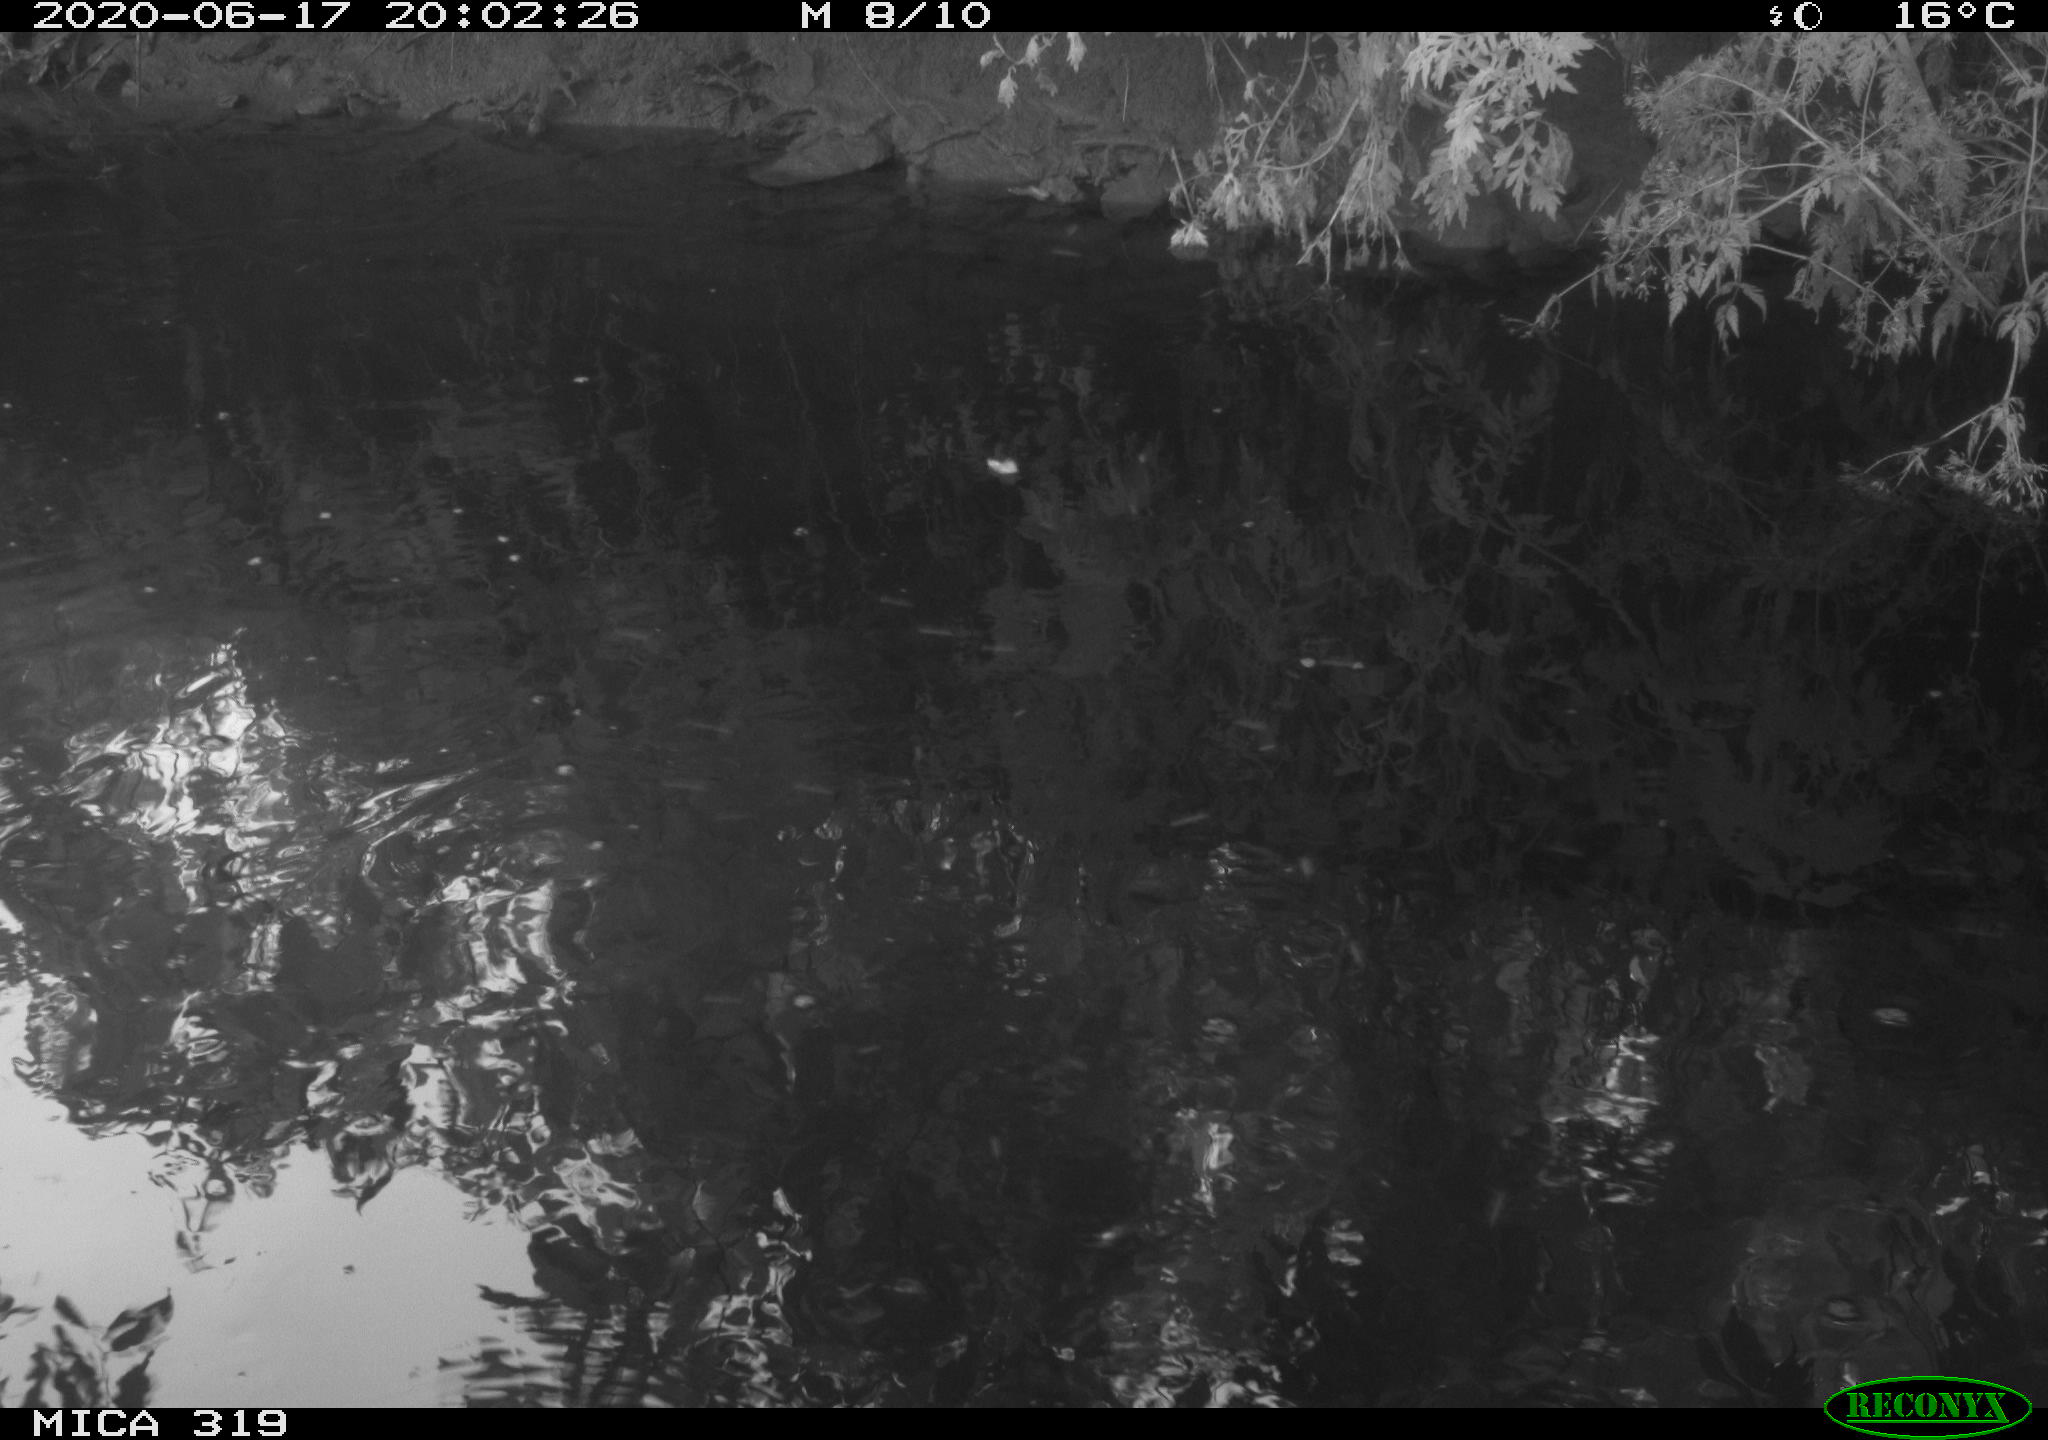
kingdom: Animalia
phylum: Chordata
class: Aves
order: Anseriformes
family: Anatidae
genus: Anas
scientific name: Anas platyrhynchos
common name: Mallard
